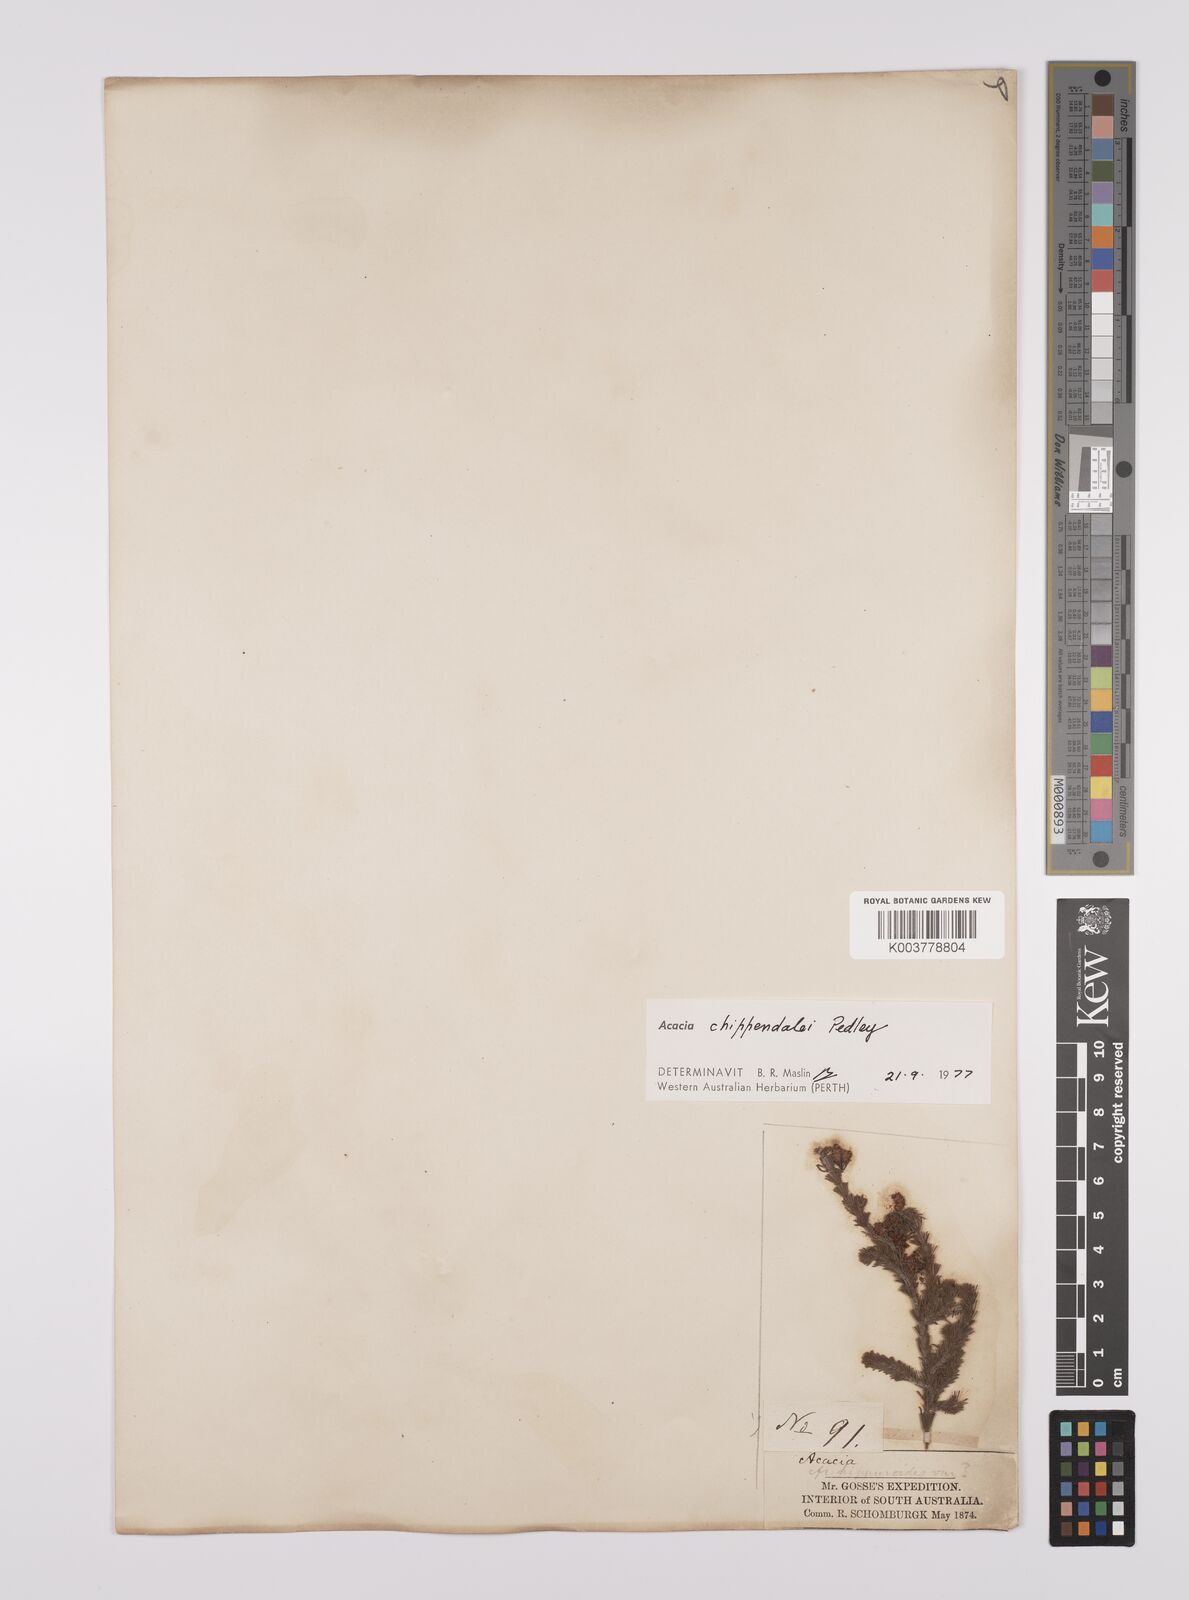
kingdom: Plantae
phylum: Tracheophyta
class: Magnoliopsida
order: Fabales
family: Fabaceae
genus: Acacia
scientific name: Acacia chippendalei
